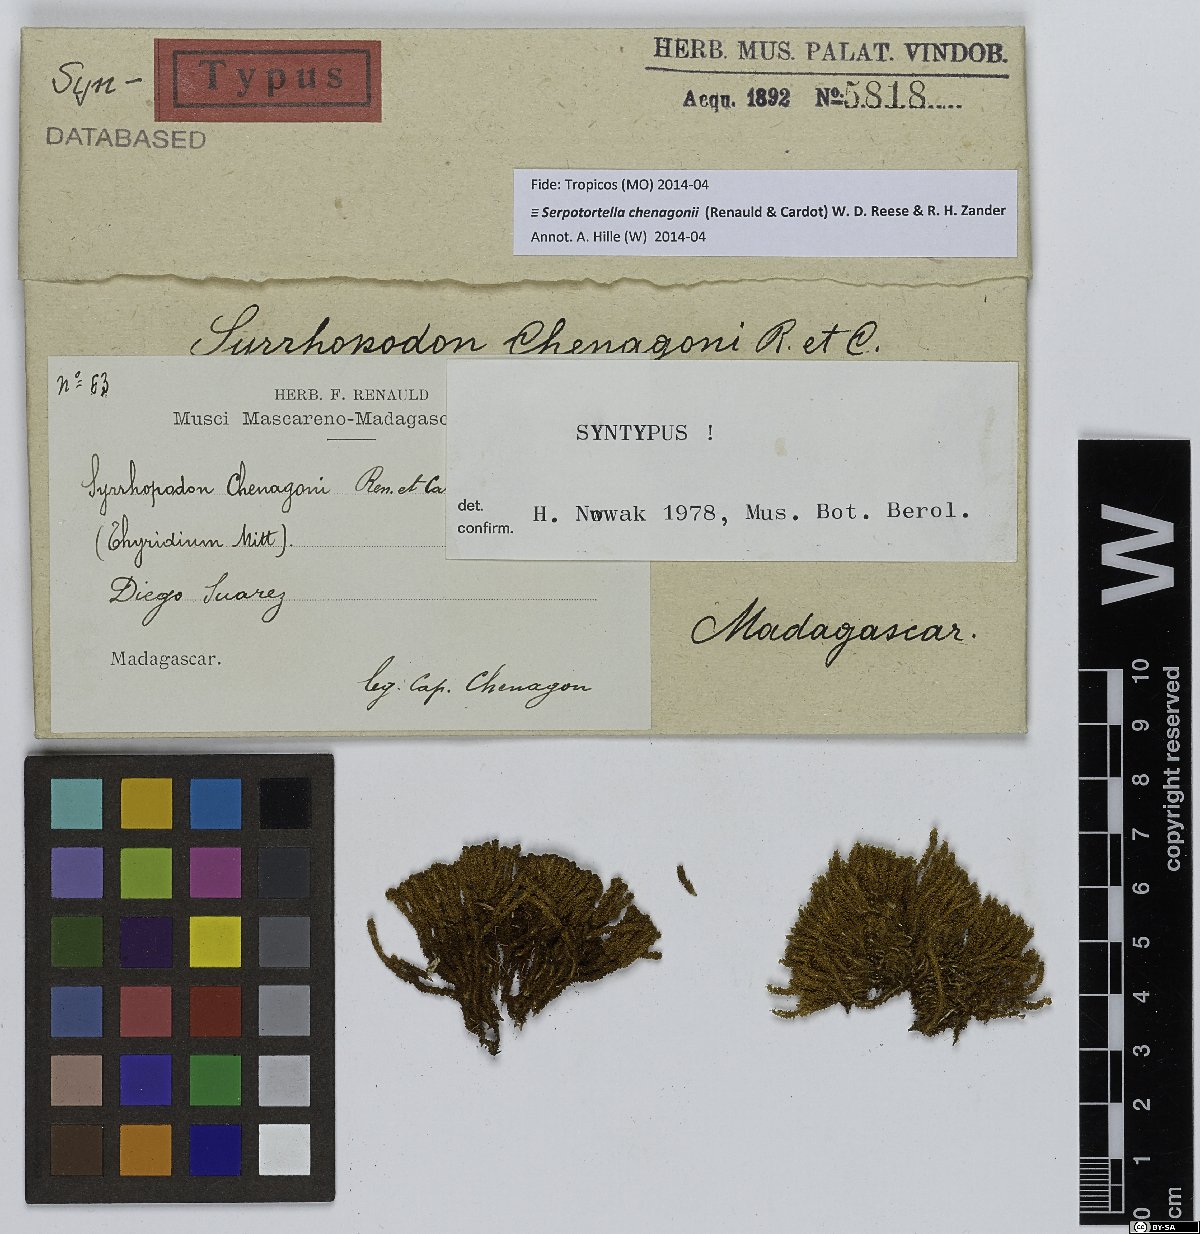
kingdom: Plantae
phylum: Bryophyta
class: Bryopsida
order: Dicranales
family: Serpotortellaceae
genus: Serpotortella
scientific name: Serpotortella chenagonii
